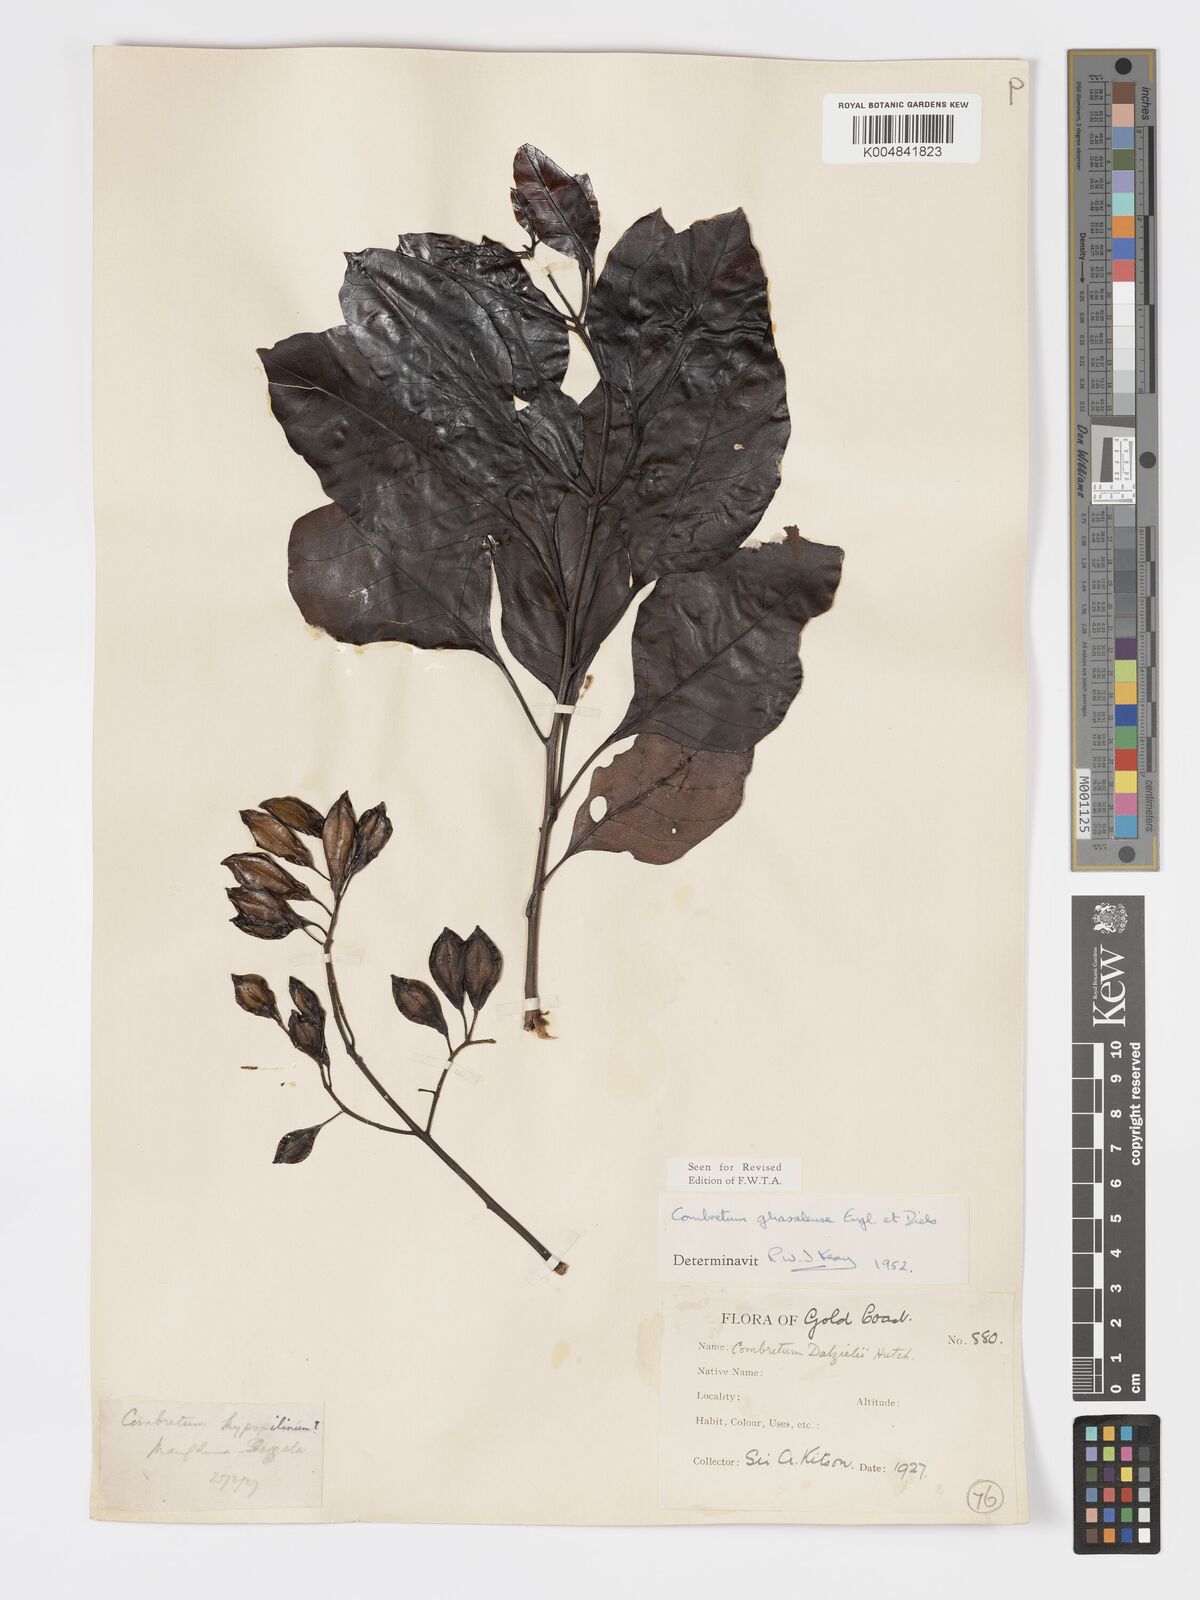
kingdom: Plantae
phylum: Tracheophyta
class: Magnoliopsida
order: Myrtales
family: Combretaceae
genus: Combretum
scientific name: Combretum adenogonium
